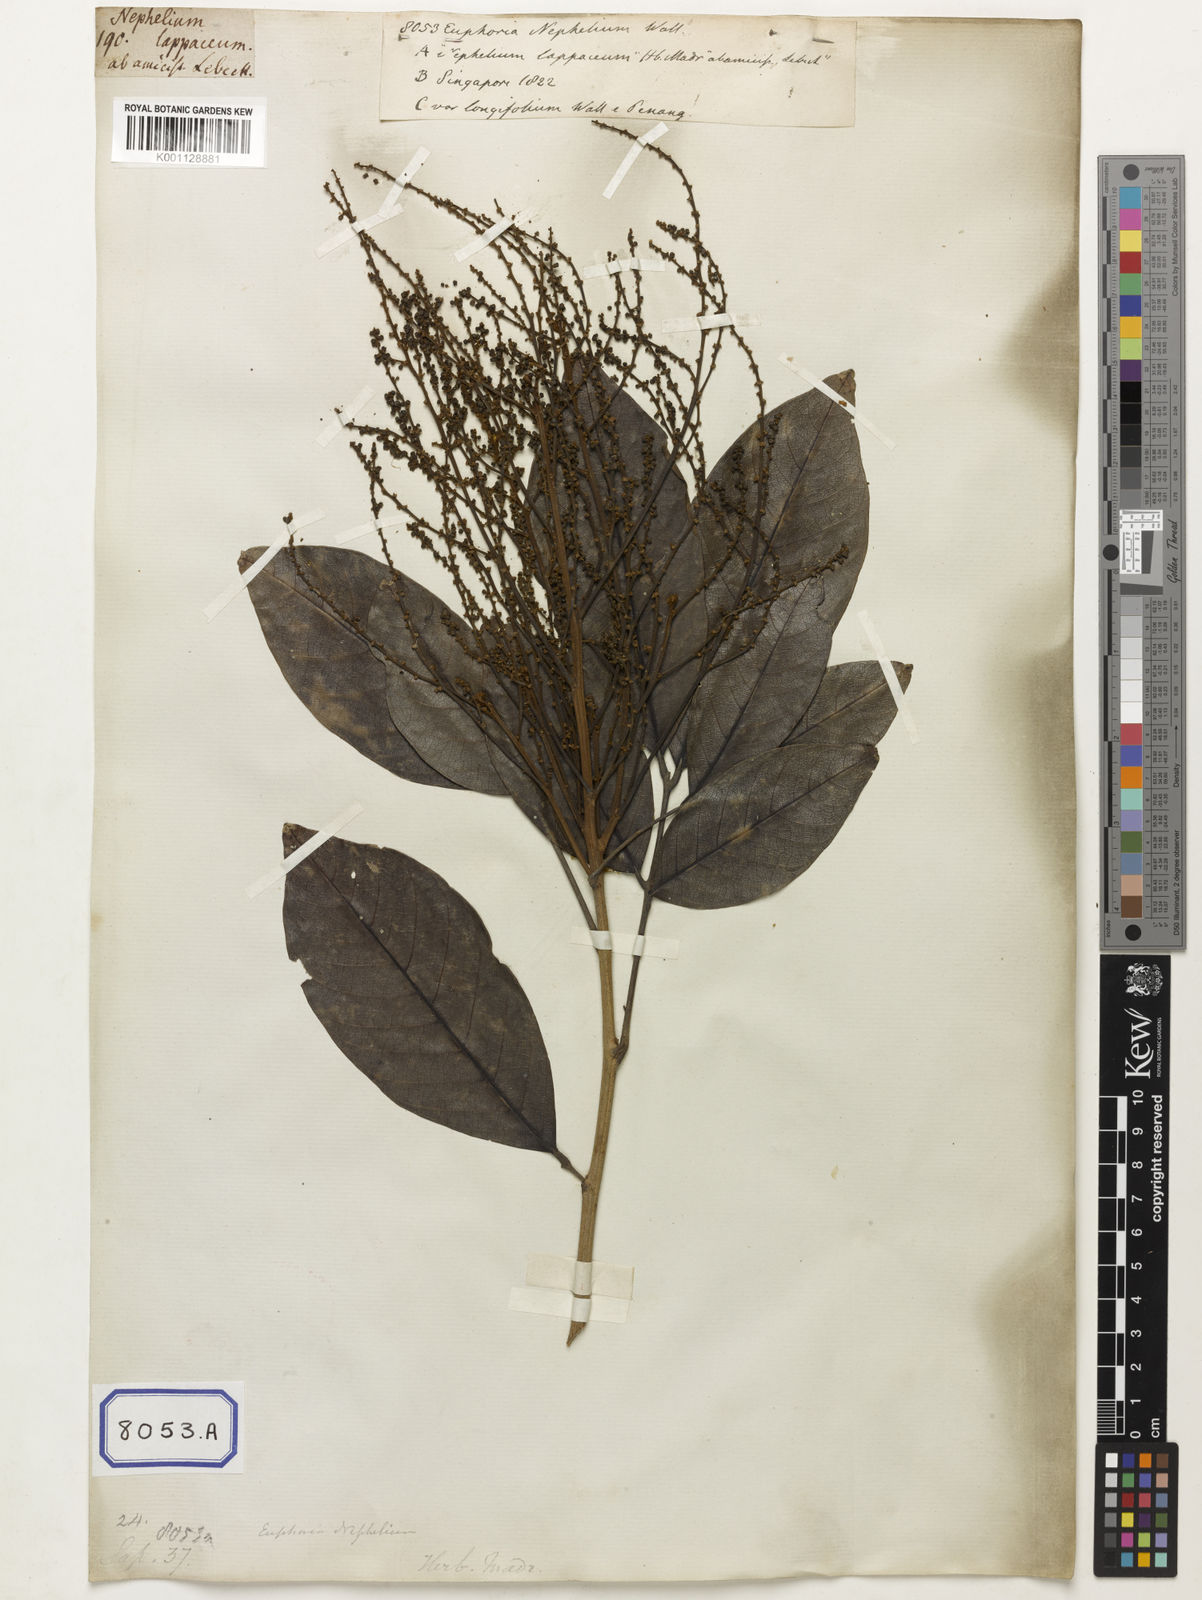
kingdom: Animalia
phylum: Arthropoda
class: Insecta
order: Coleoptera
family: Scarabaeidae
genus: Euphoria
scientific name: Euphoria
